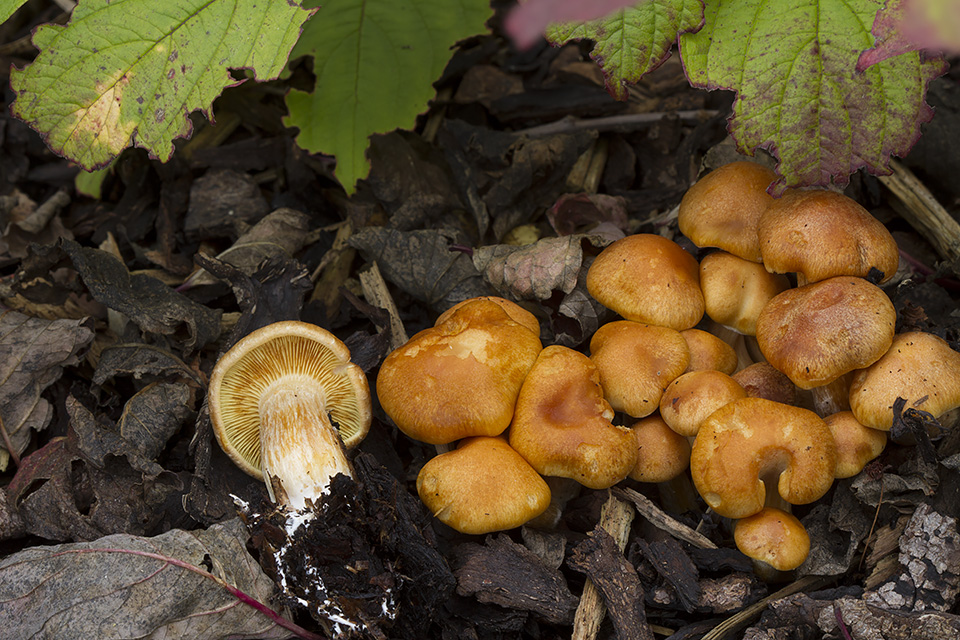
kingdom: Fungi
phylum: Basidiomycota
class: Agaricomycetes
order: Agaricales
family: Hymenogastraceae
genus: Gymnopilus
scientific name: Gymnopilus penetrans
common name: plettet flammehat
